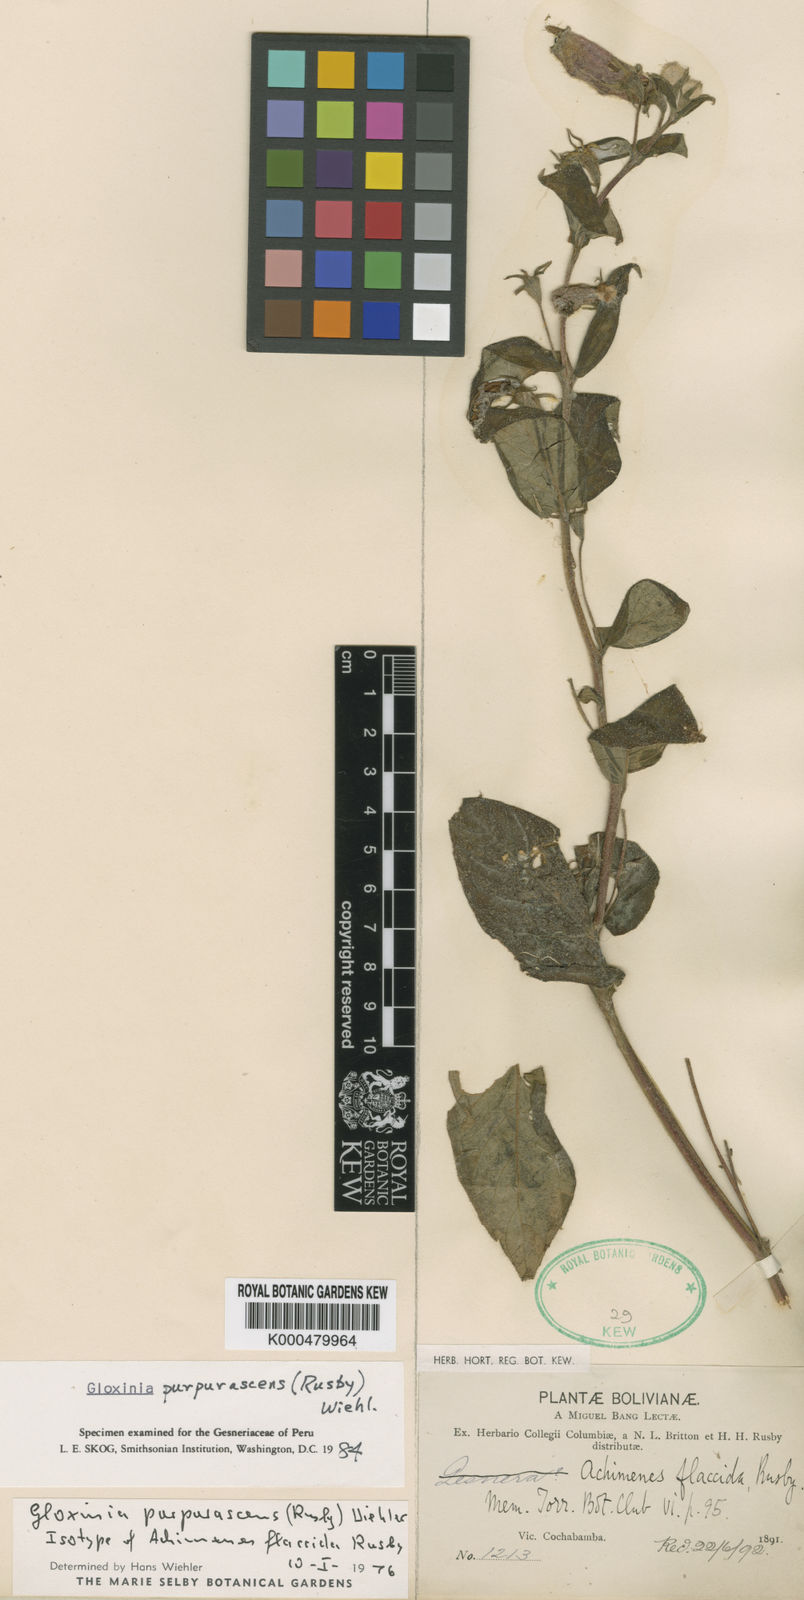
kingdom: Plantae
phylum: Tracheophyta
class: Magnoliopsida
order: Lamiales
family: Gesneriaceae
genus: Seemannia
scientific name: Seemannia purpurascens
